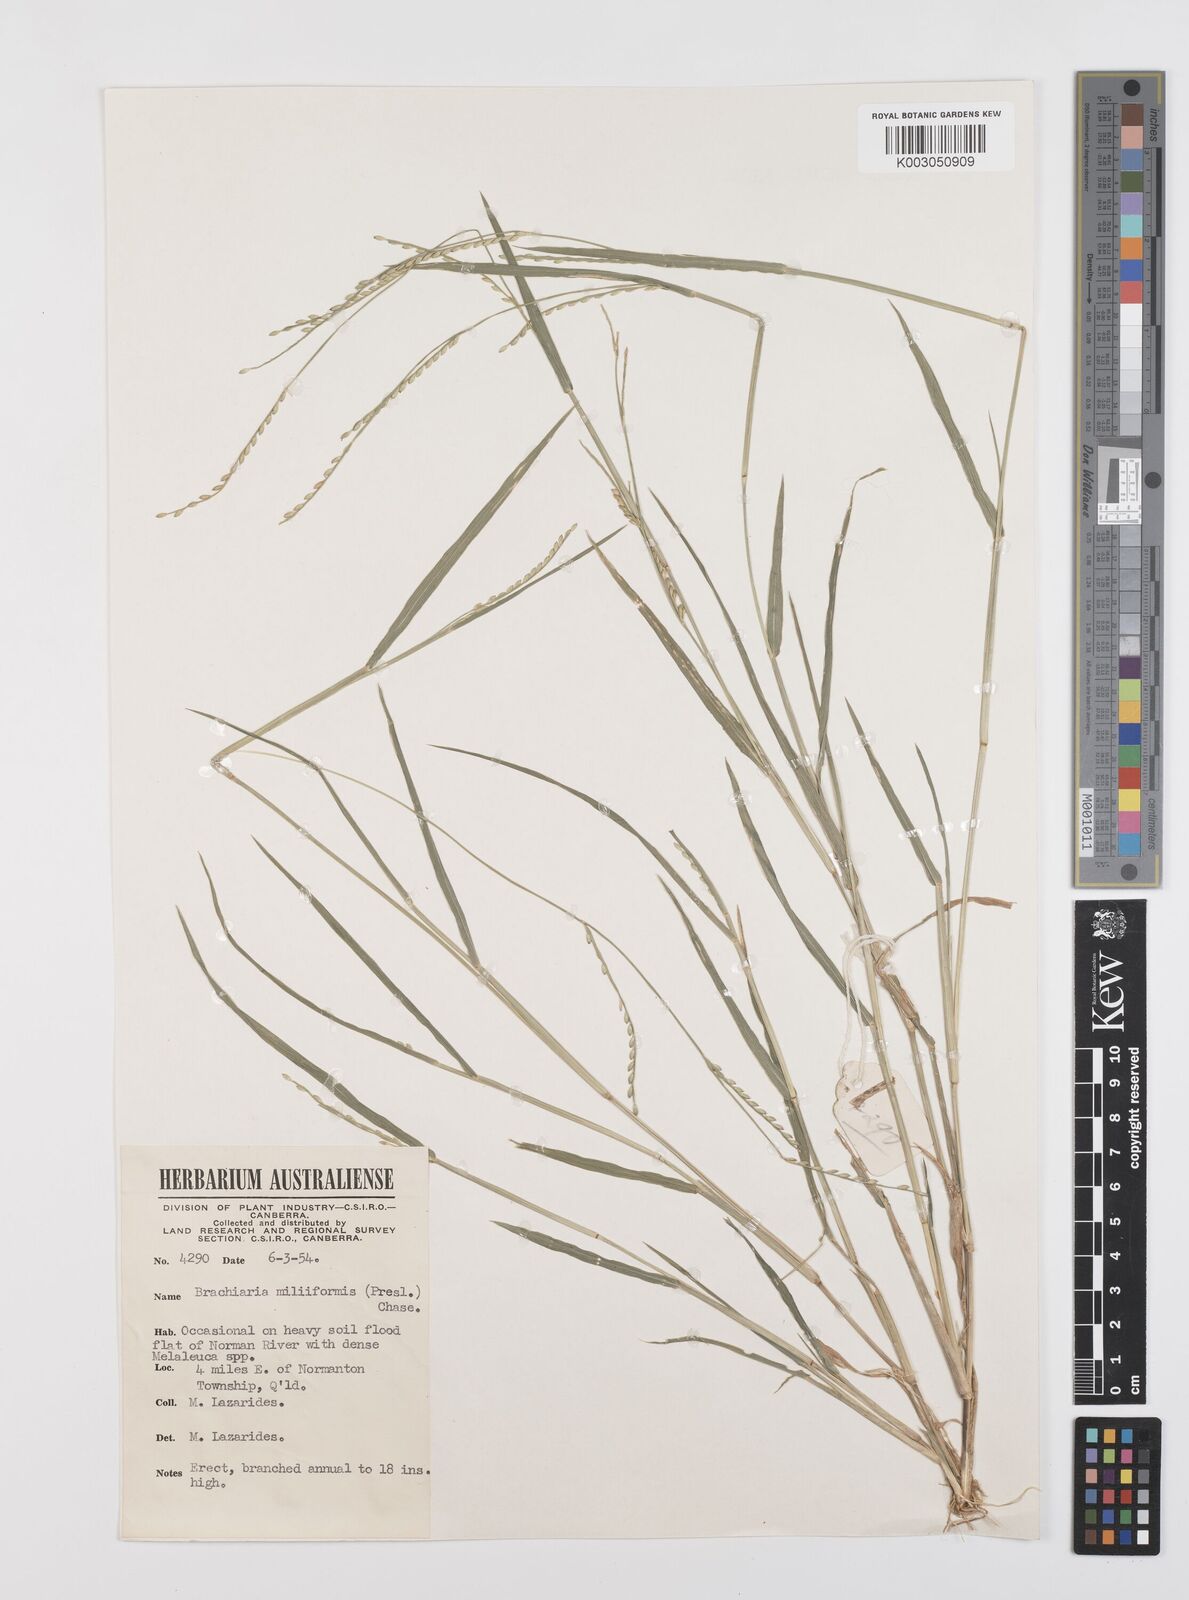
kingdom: Plantae
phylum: Tracheophyta
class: Liliopsida
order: Poales
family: Poaceae
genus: Urochloa
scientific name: Urochloa subquadripara
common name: Armgrass millet
